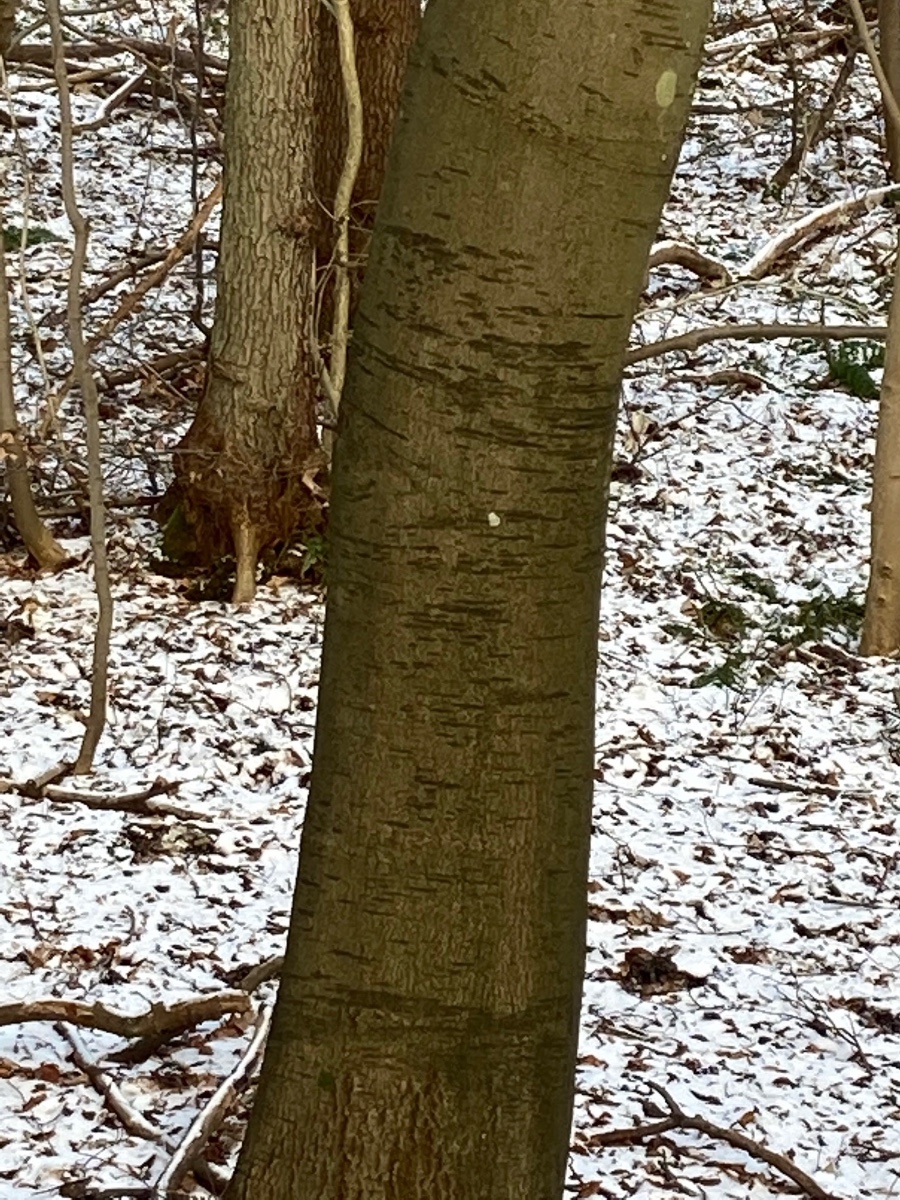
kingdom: Fungi
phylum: Ascomycota
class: Leotiomycetes
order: Rhytismatales
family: Ascodichaenaceae
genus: Ascodichaena
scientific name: Ascodichaena rugosa
